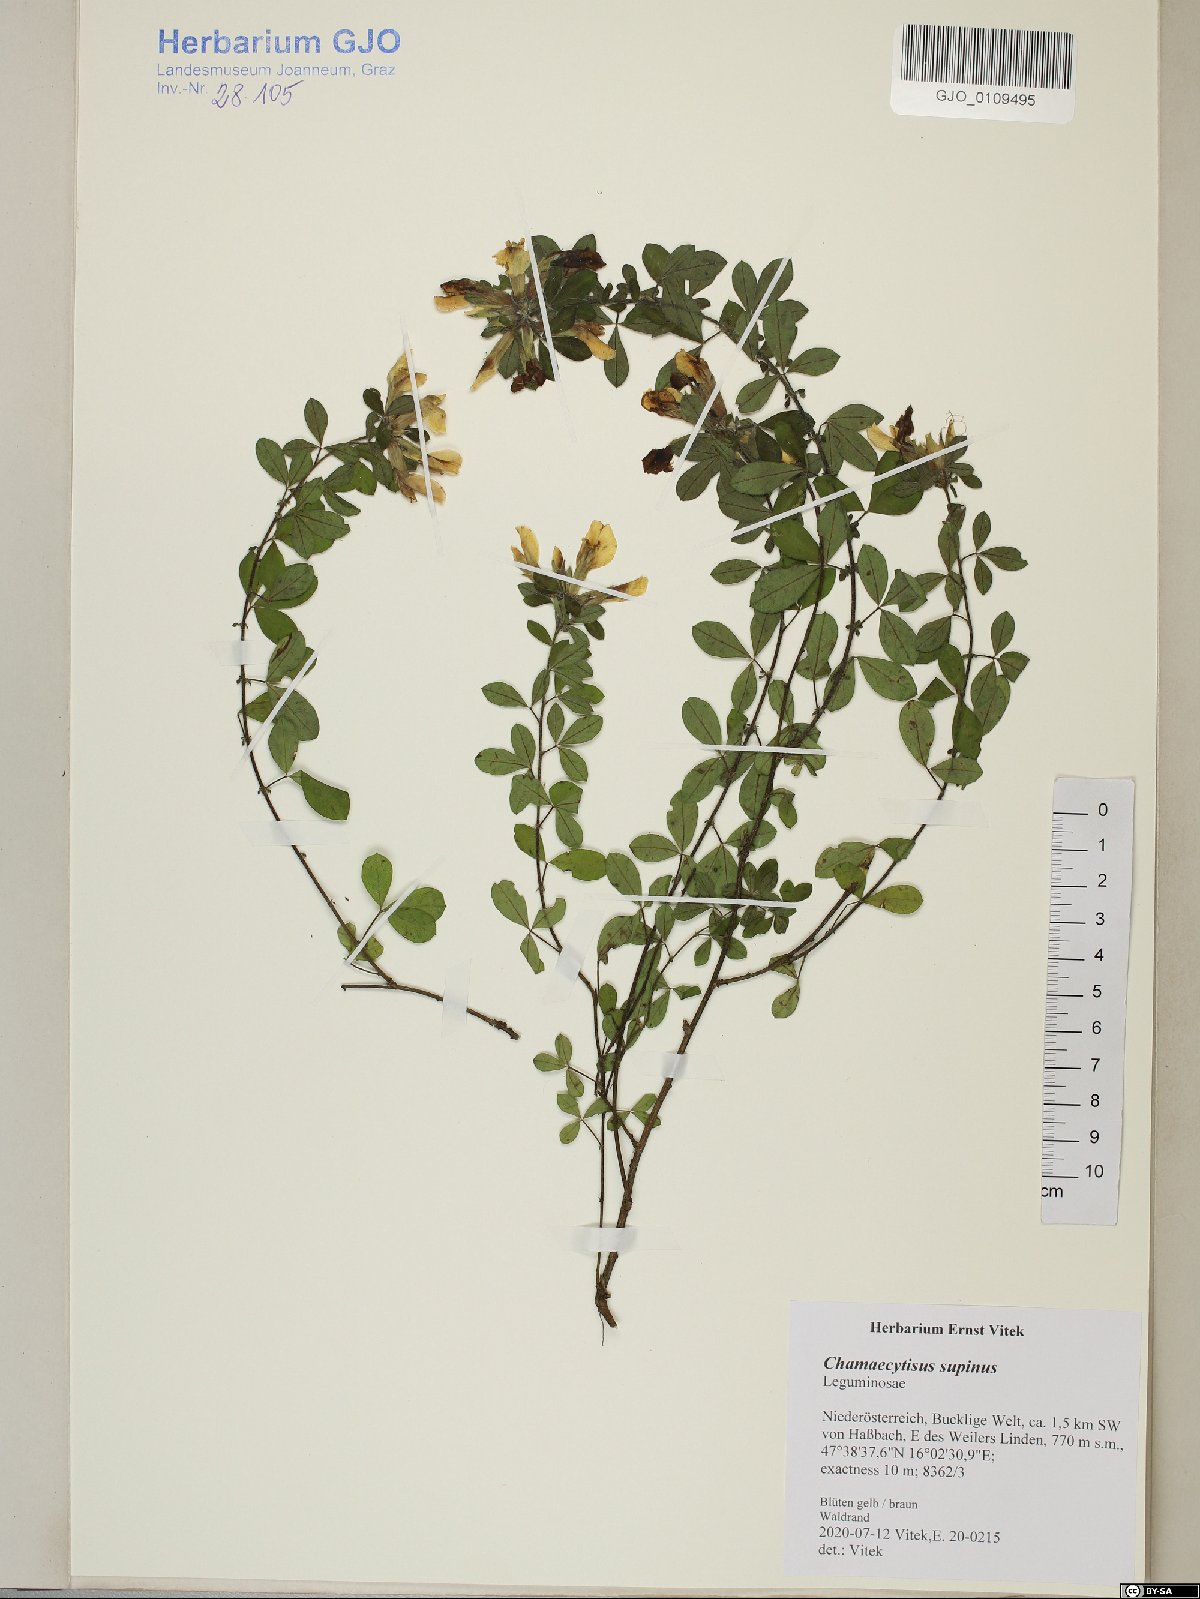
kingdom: Plantae
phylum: Tracheophyta
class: Magnoliopsida
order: Fabales
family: Fabaceae
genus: Chamaecytisus
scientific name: Chamaecytisus supinus
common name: Clustered broom
